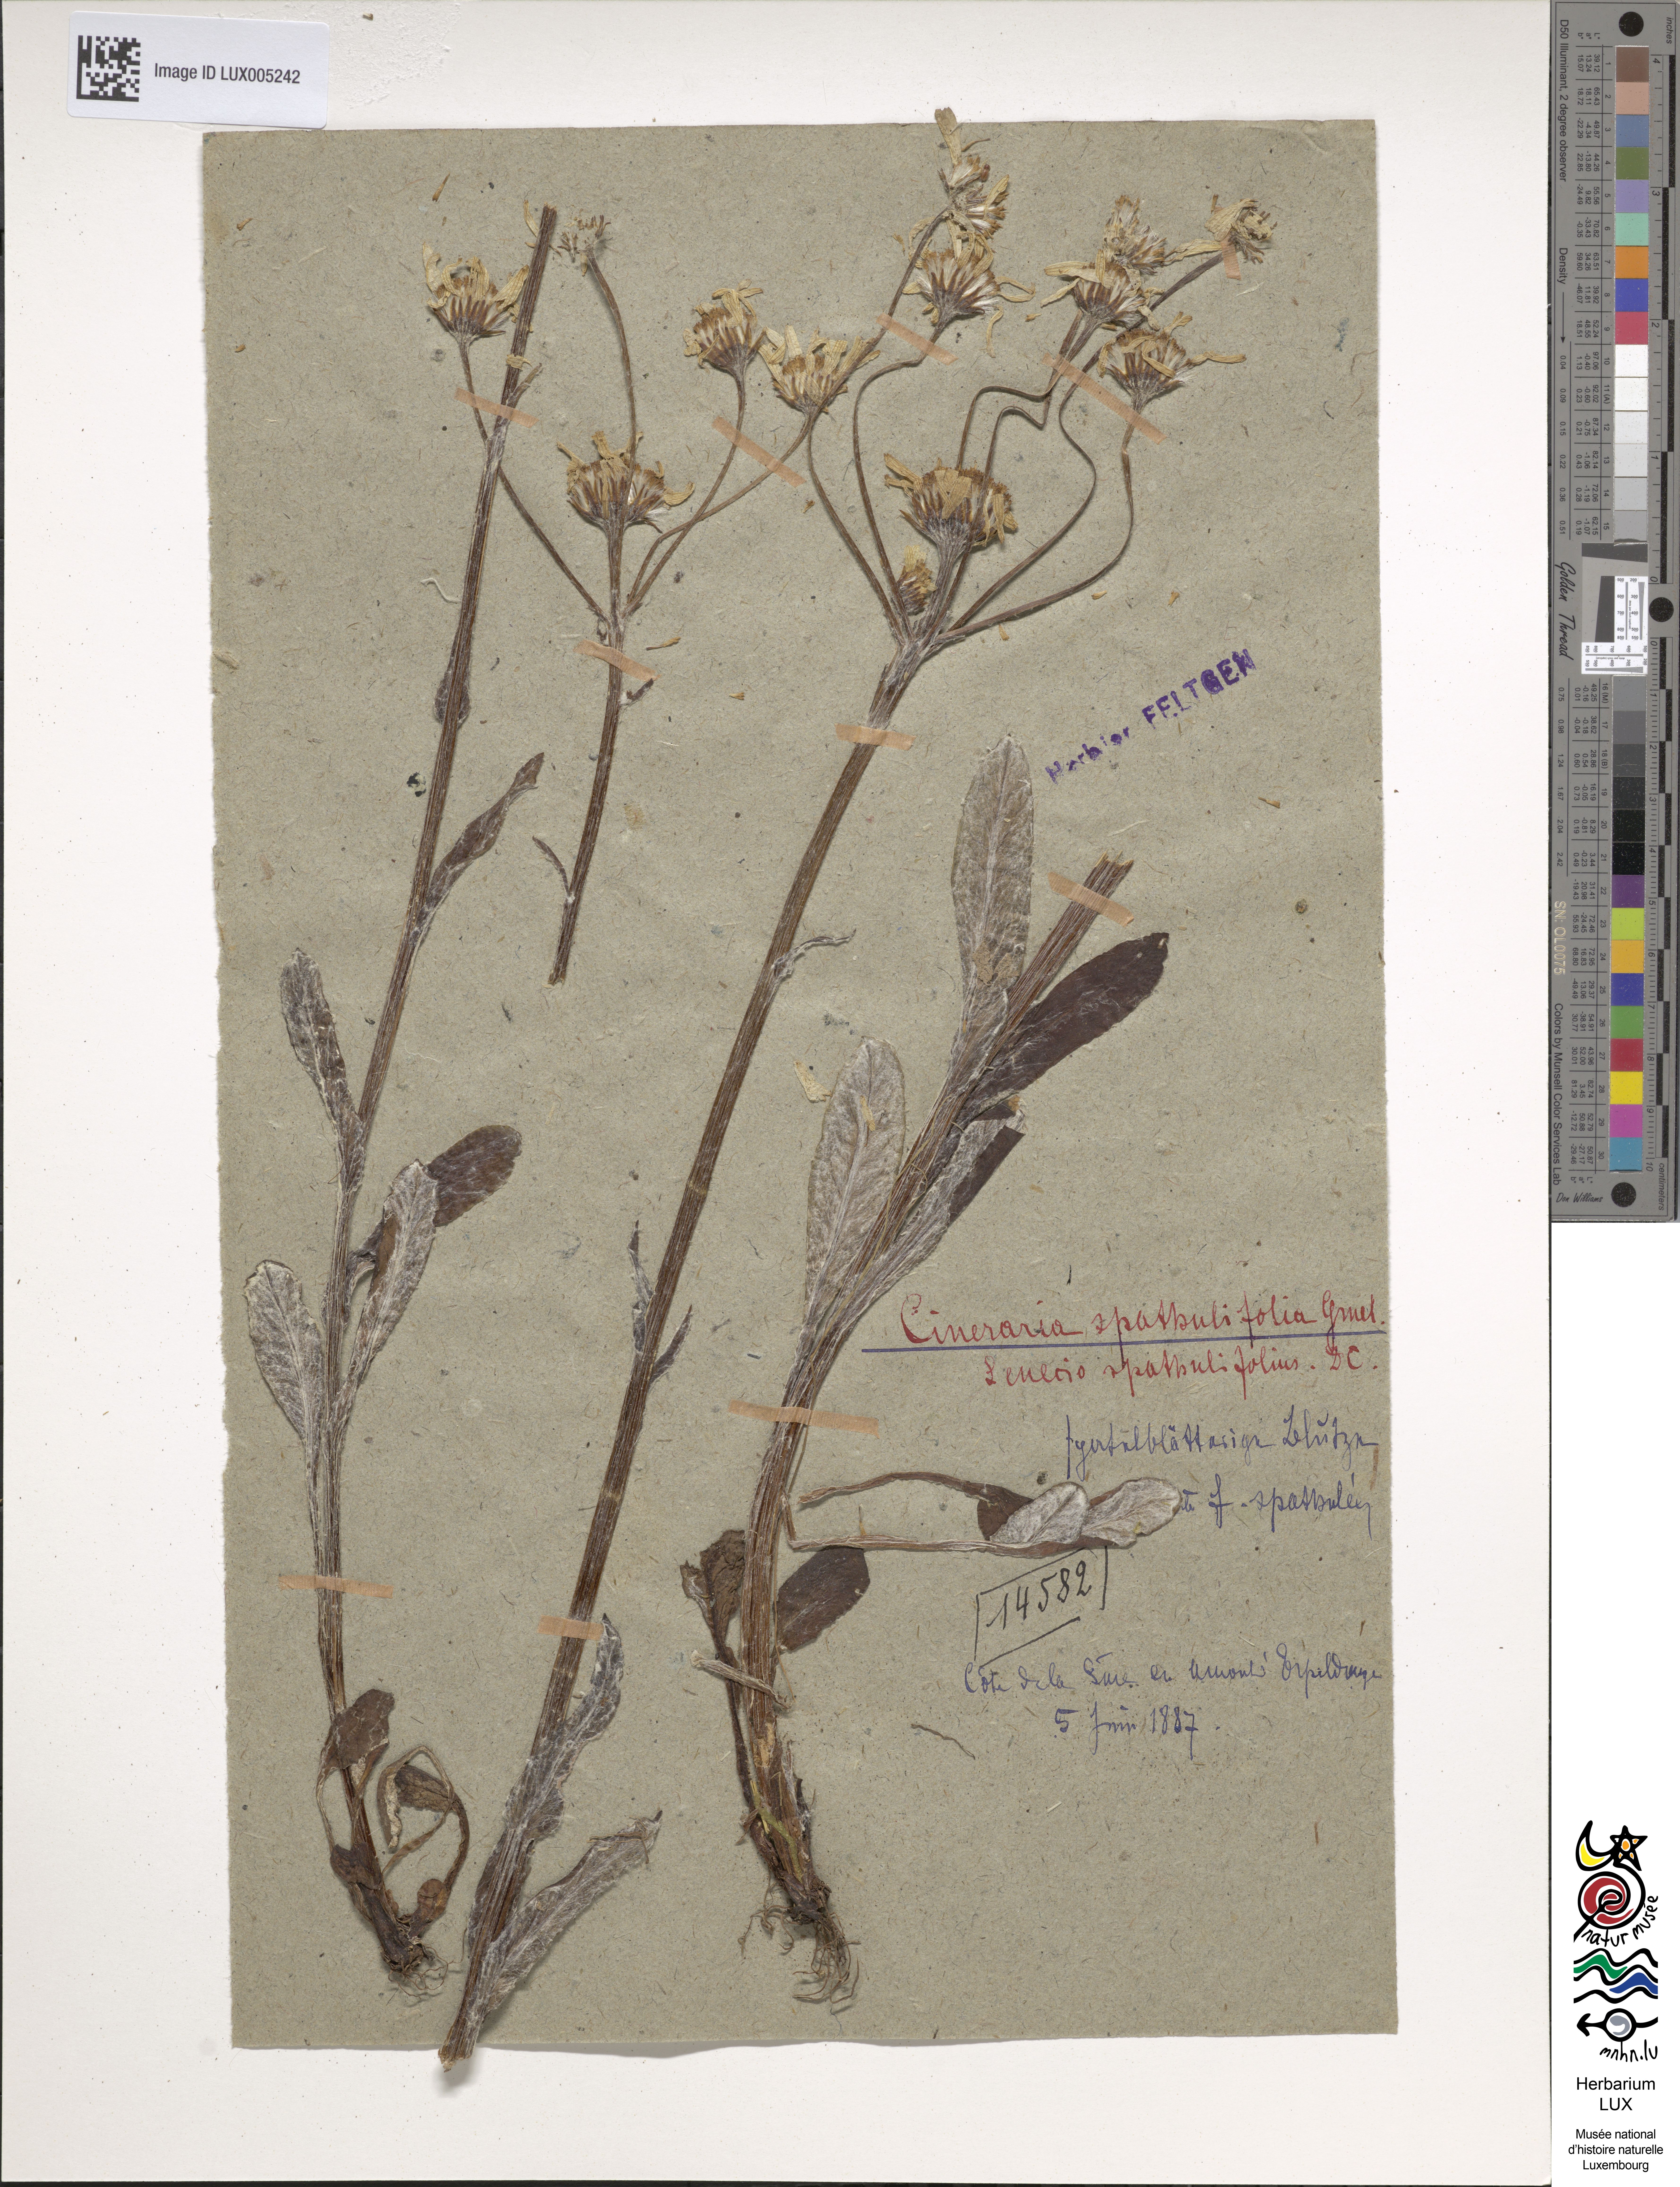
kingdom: Plantae
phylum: Tracheophyta
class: Magnoliopsida
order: Asterales
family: Asteraceae
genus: Tephroseris
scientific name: Tephroseris helenitis
